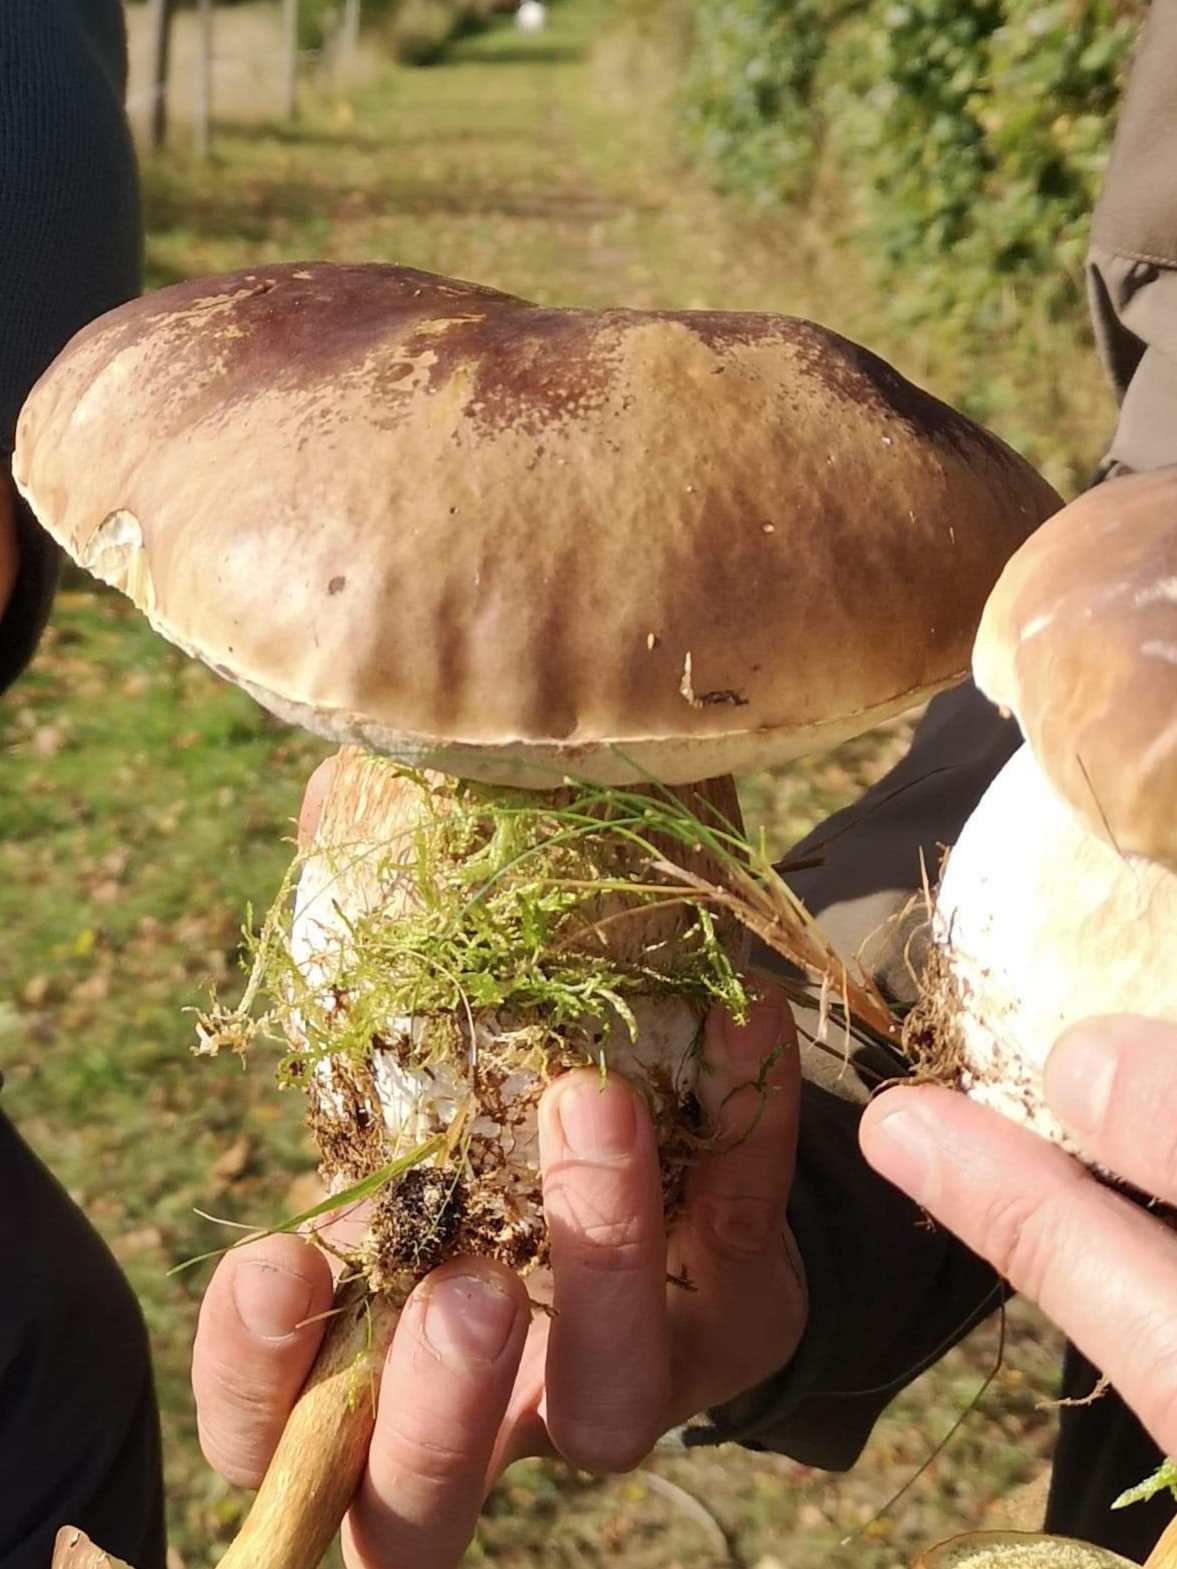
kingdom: Fungi
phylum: Basidiomycota
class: Agaricomycetes
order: Boletales
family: Boletaceae
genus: Boletus
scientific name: Boletus edulis
